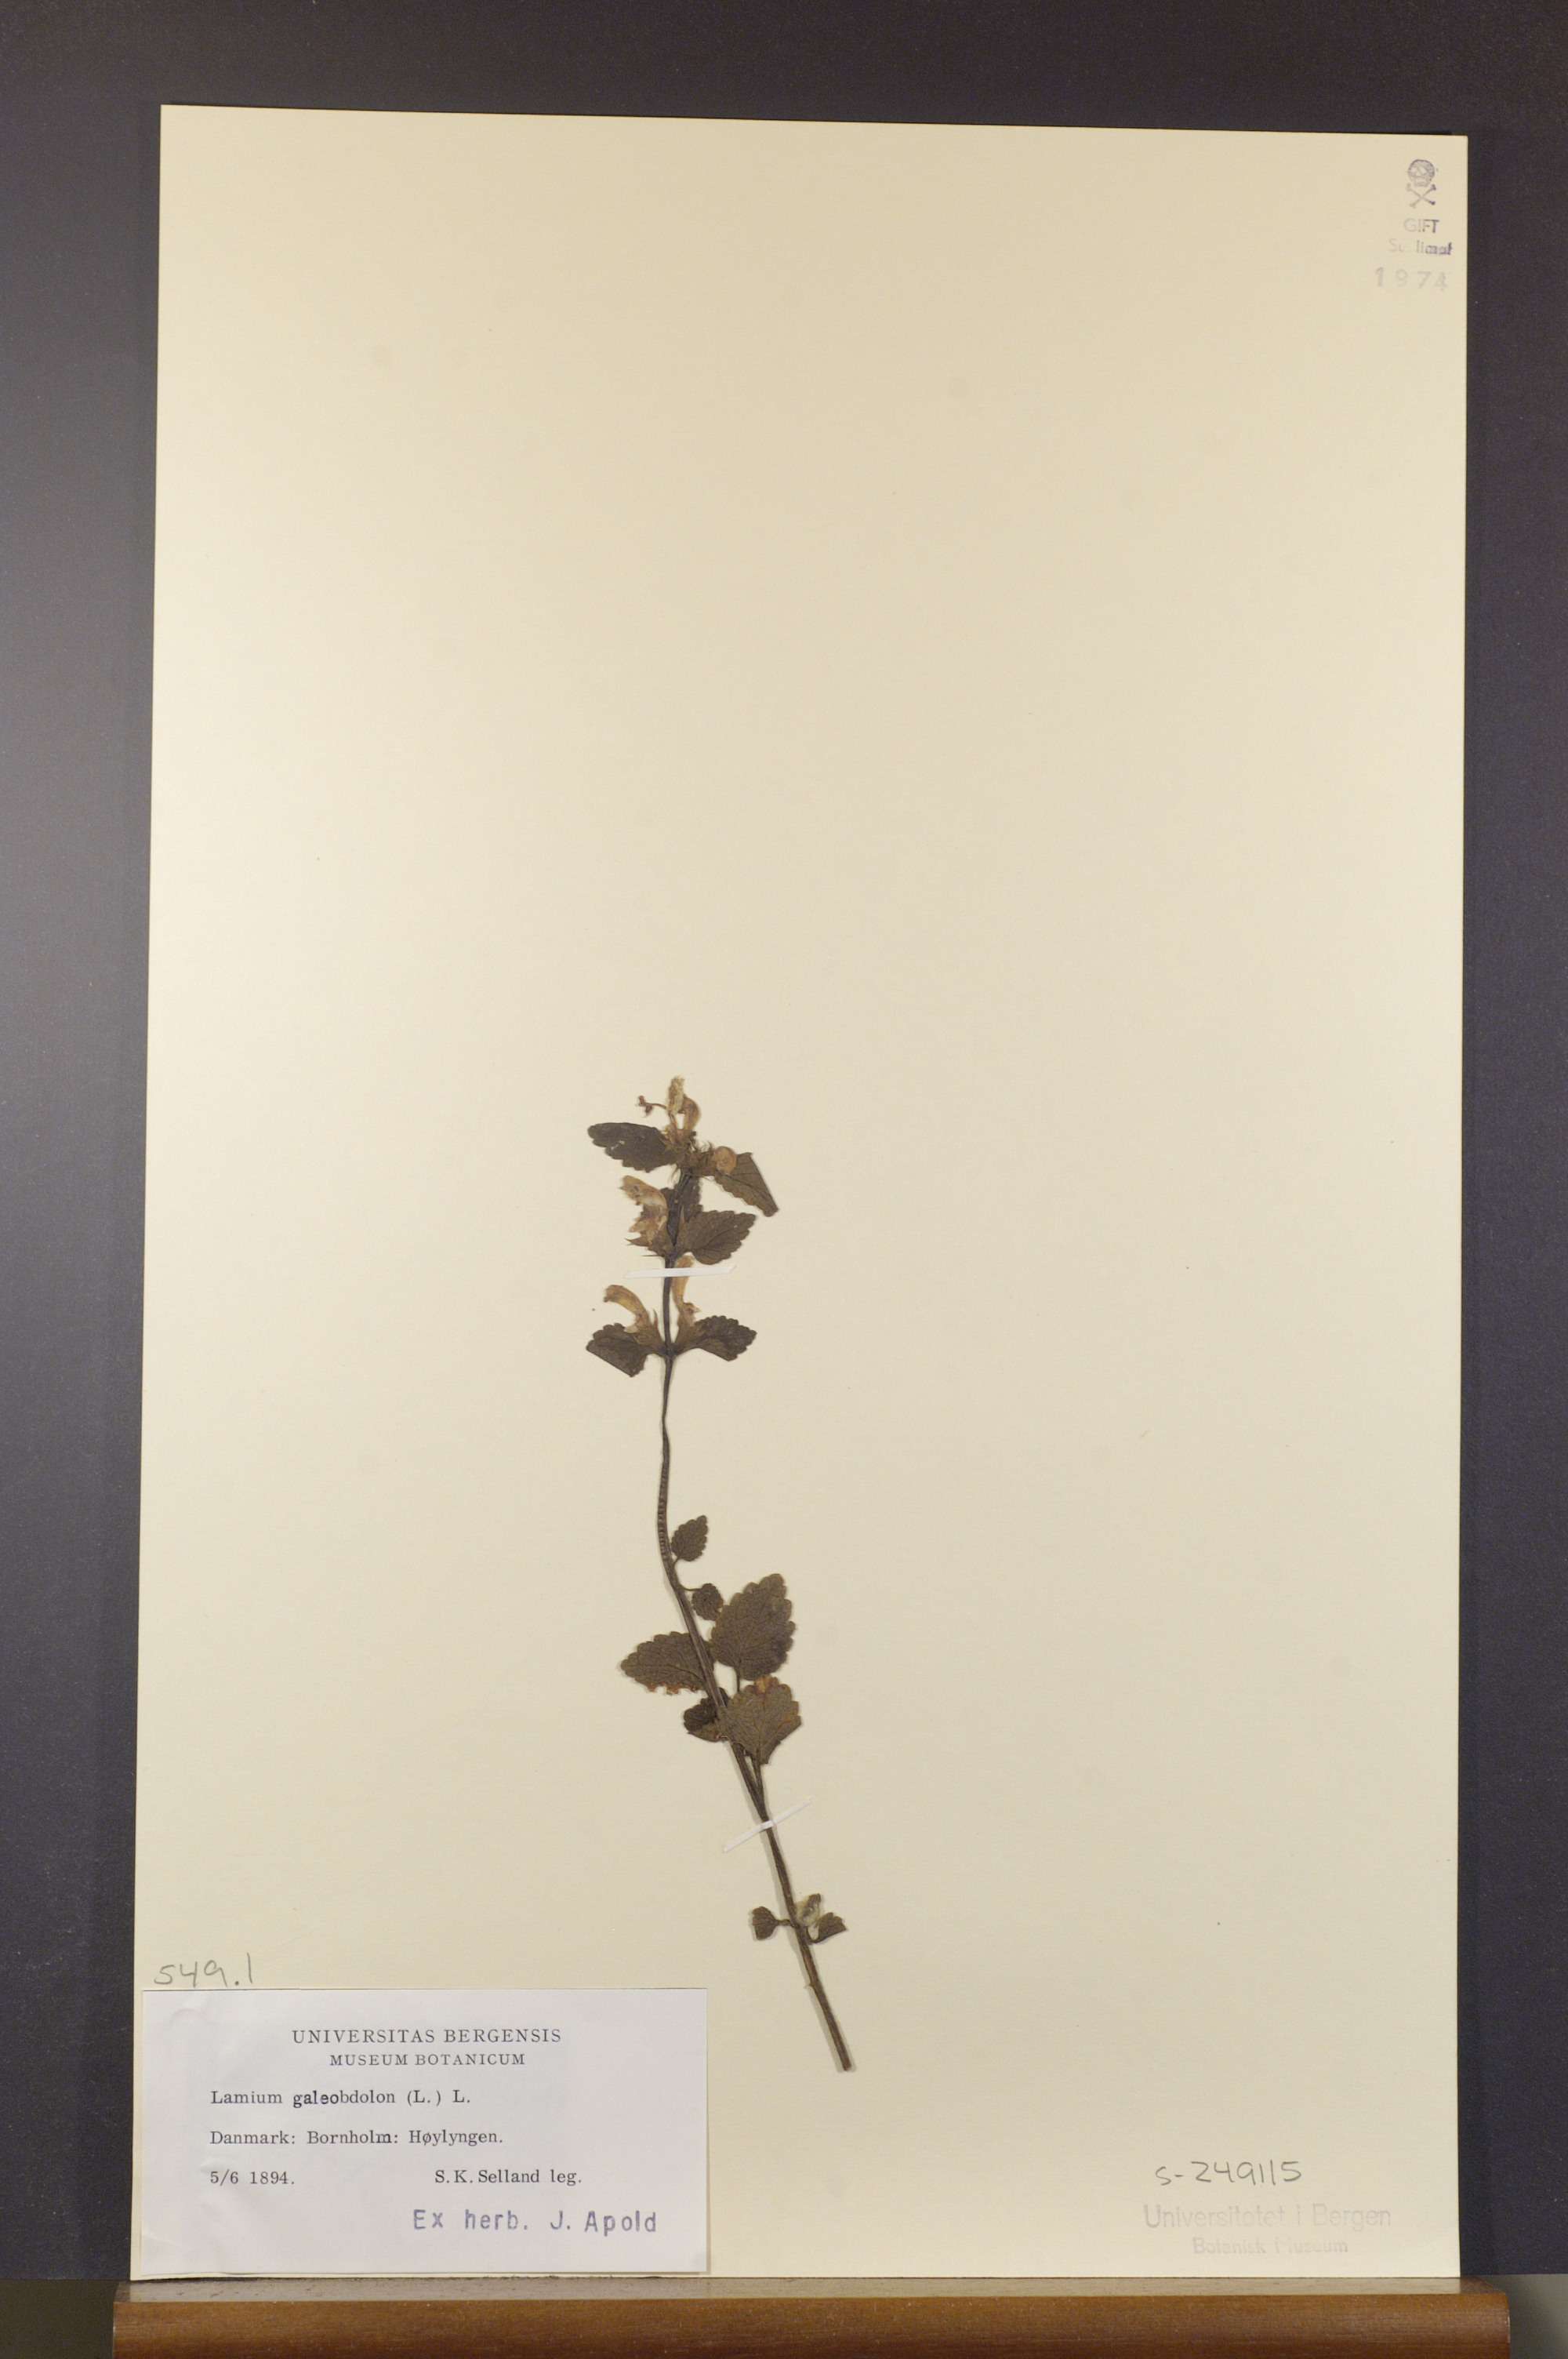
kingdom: Plantae
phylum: Tracheophyta
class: Magnoliopsida
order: Lamiales
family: Lamiaceae
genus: Lamium
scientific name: Lamium galeobdolon
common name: Yellow archangel
